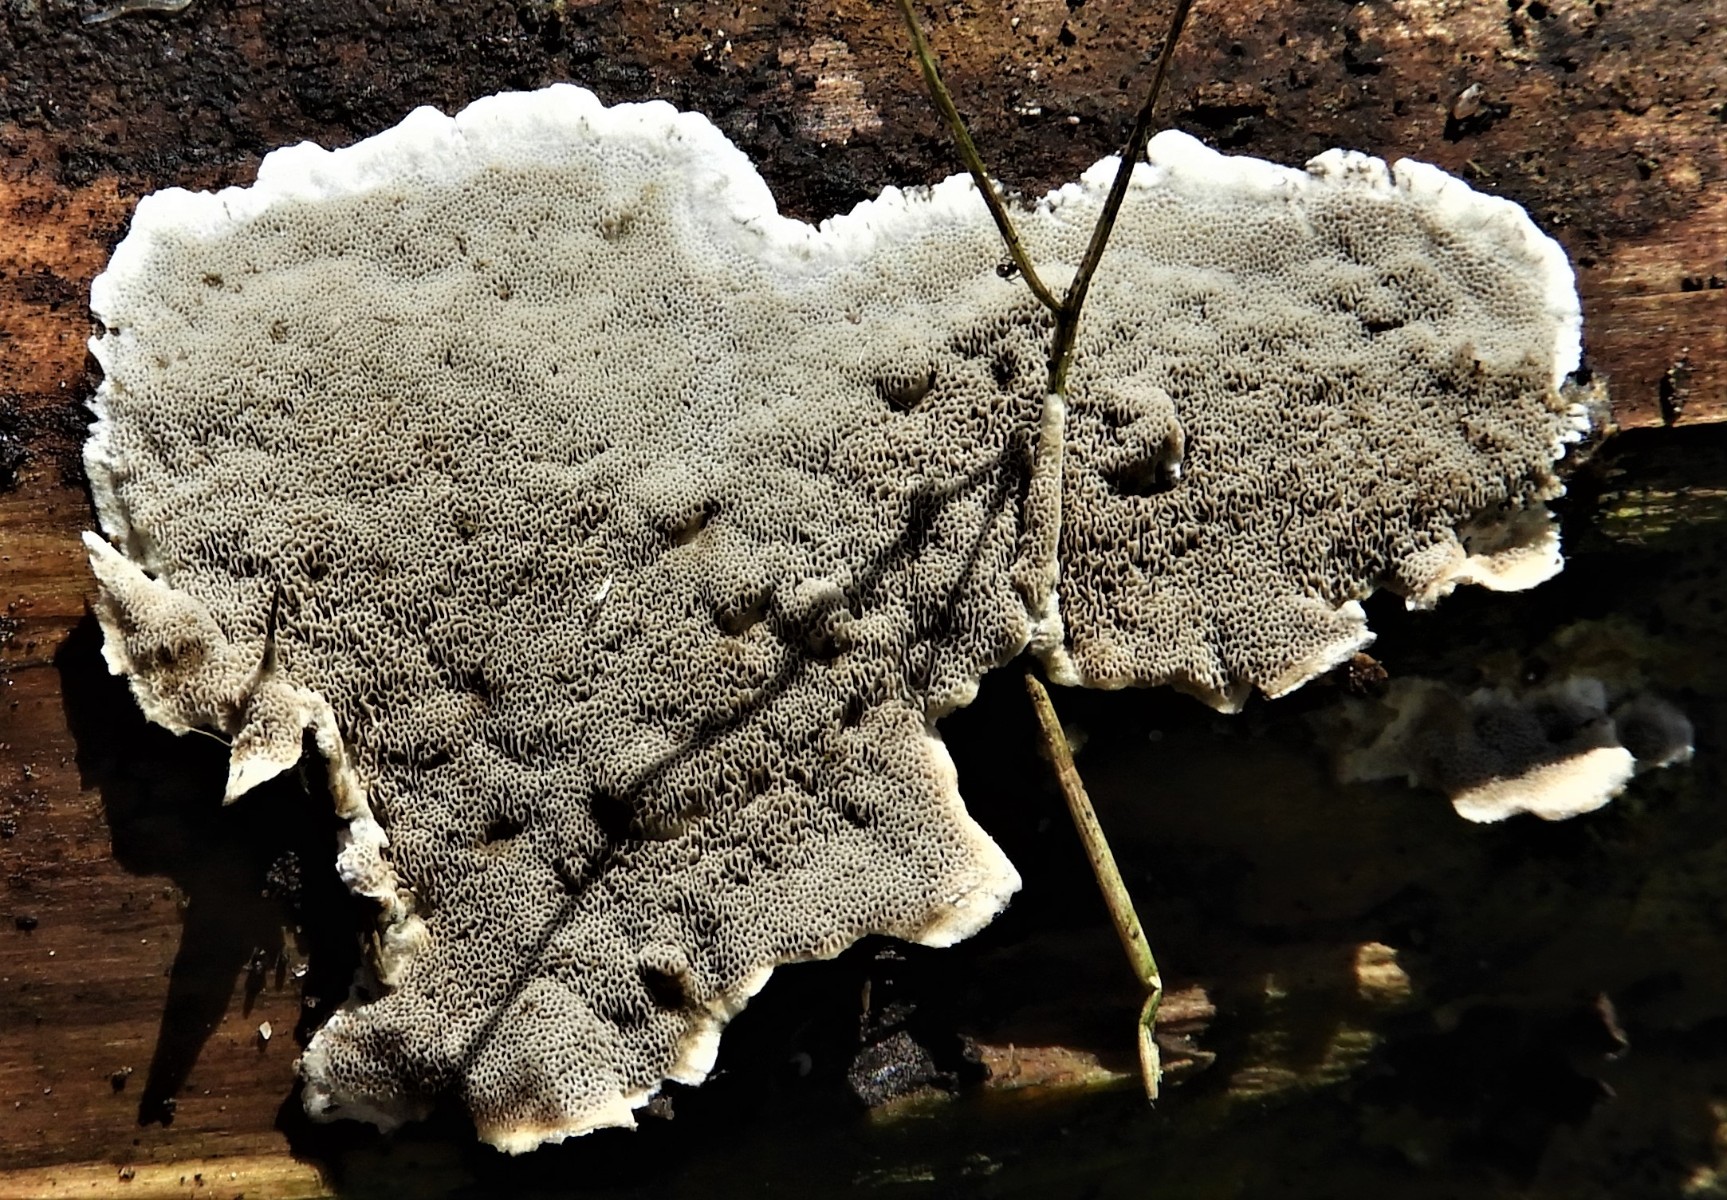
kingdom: Fungi
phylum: Basidiomycota
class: Agaricomycetes
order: Polyporales
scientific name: Polyporales
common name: poresvampordenen
